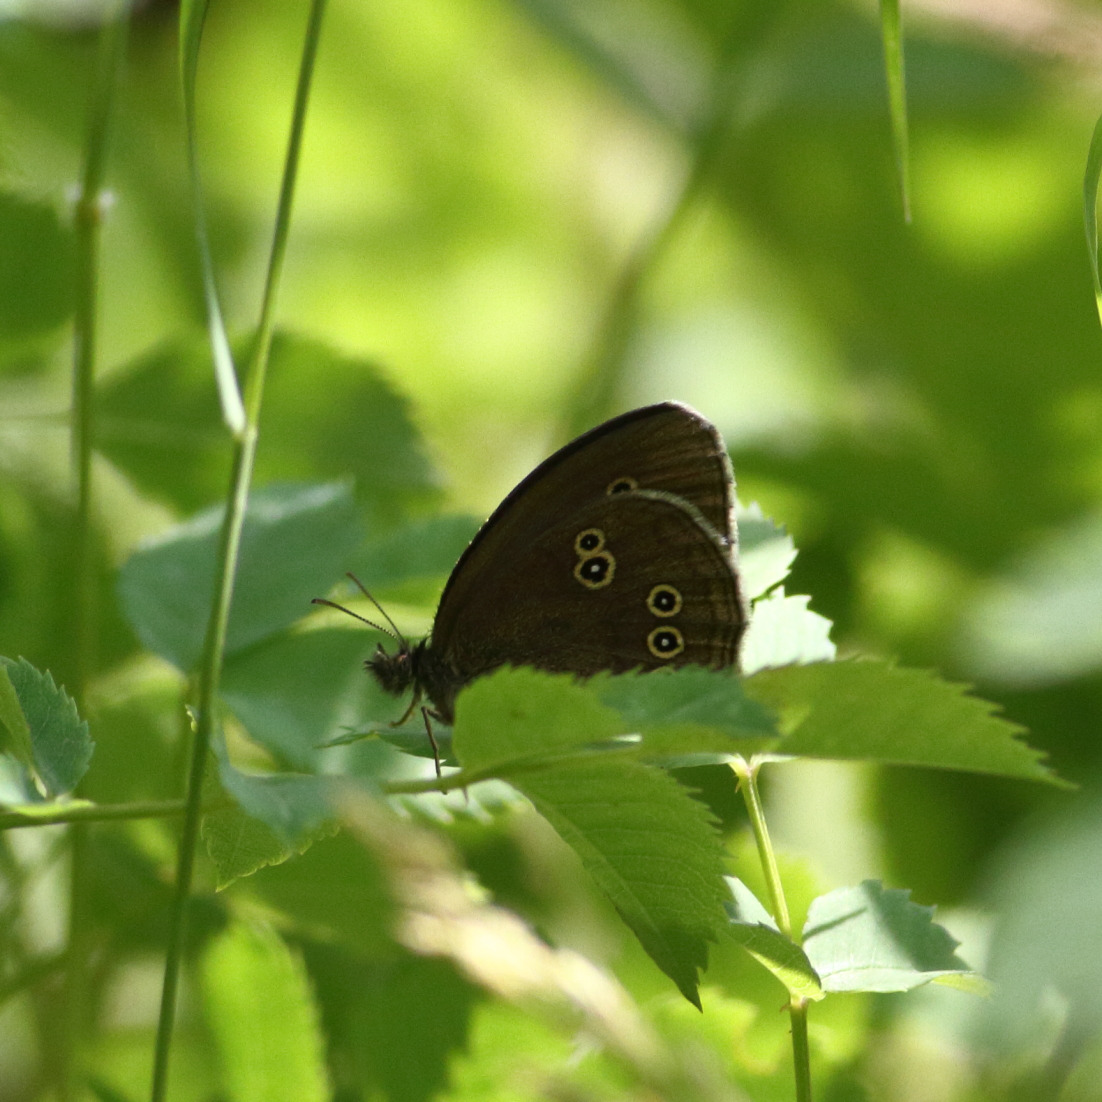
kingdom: Animalia
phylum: Arthropoda
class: Insecta
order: Lepidoptera
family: Nymphalidae
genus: Aphantopus
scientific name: Aphantopus hyperantus
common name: Engrandøje
